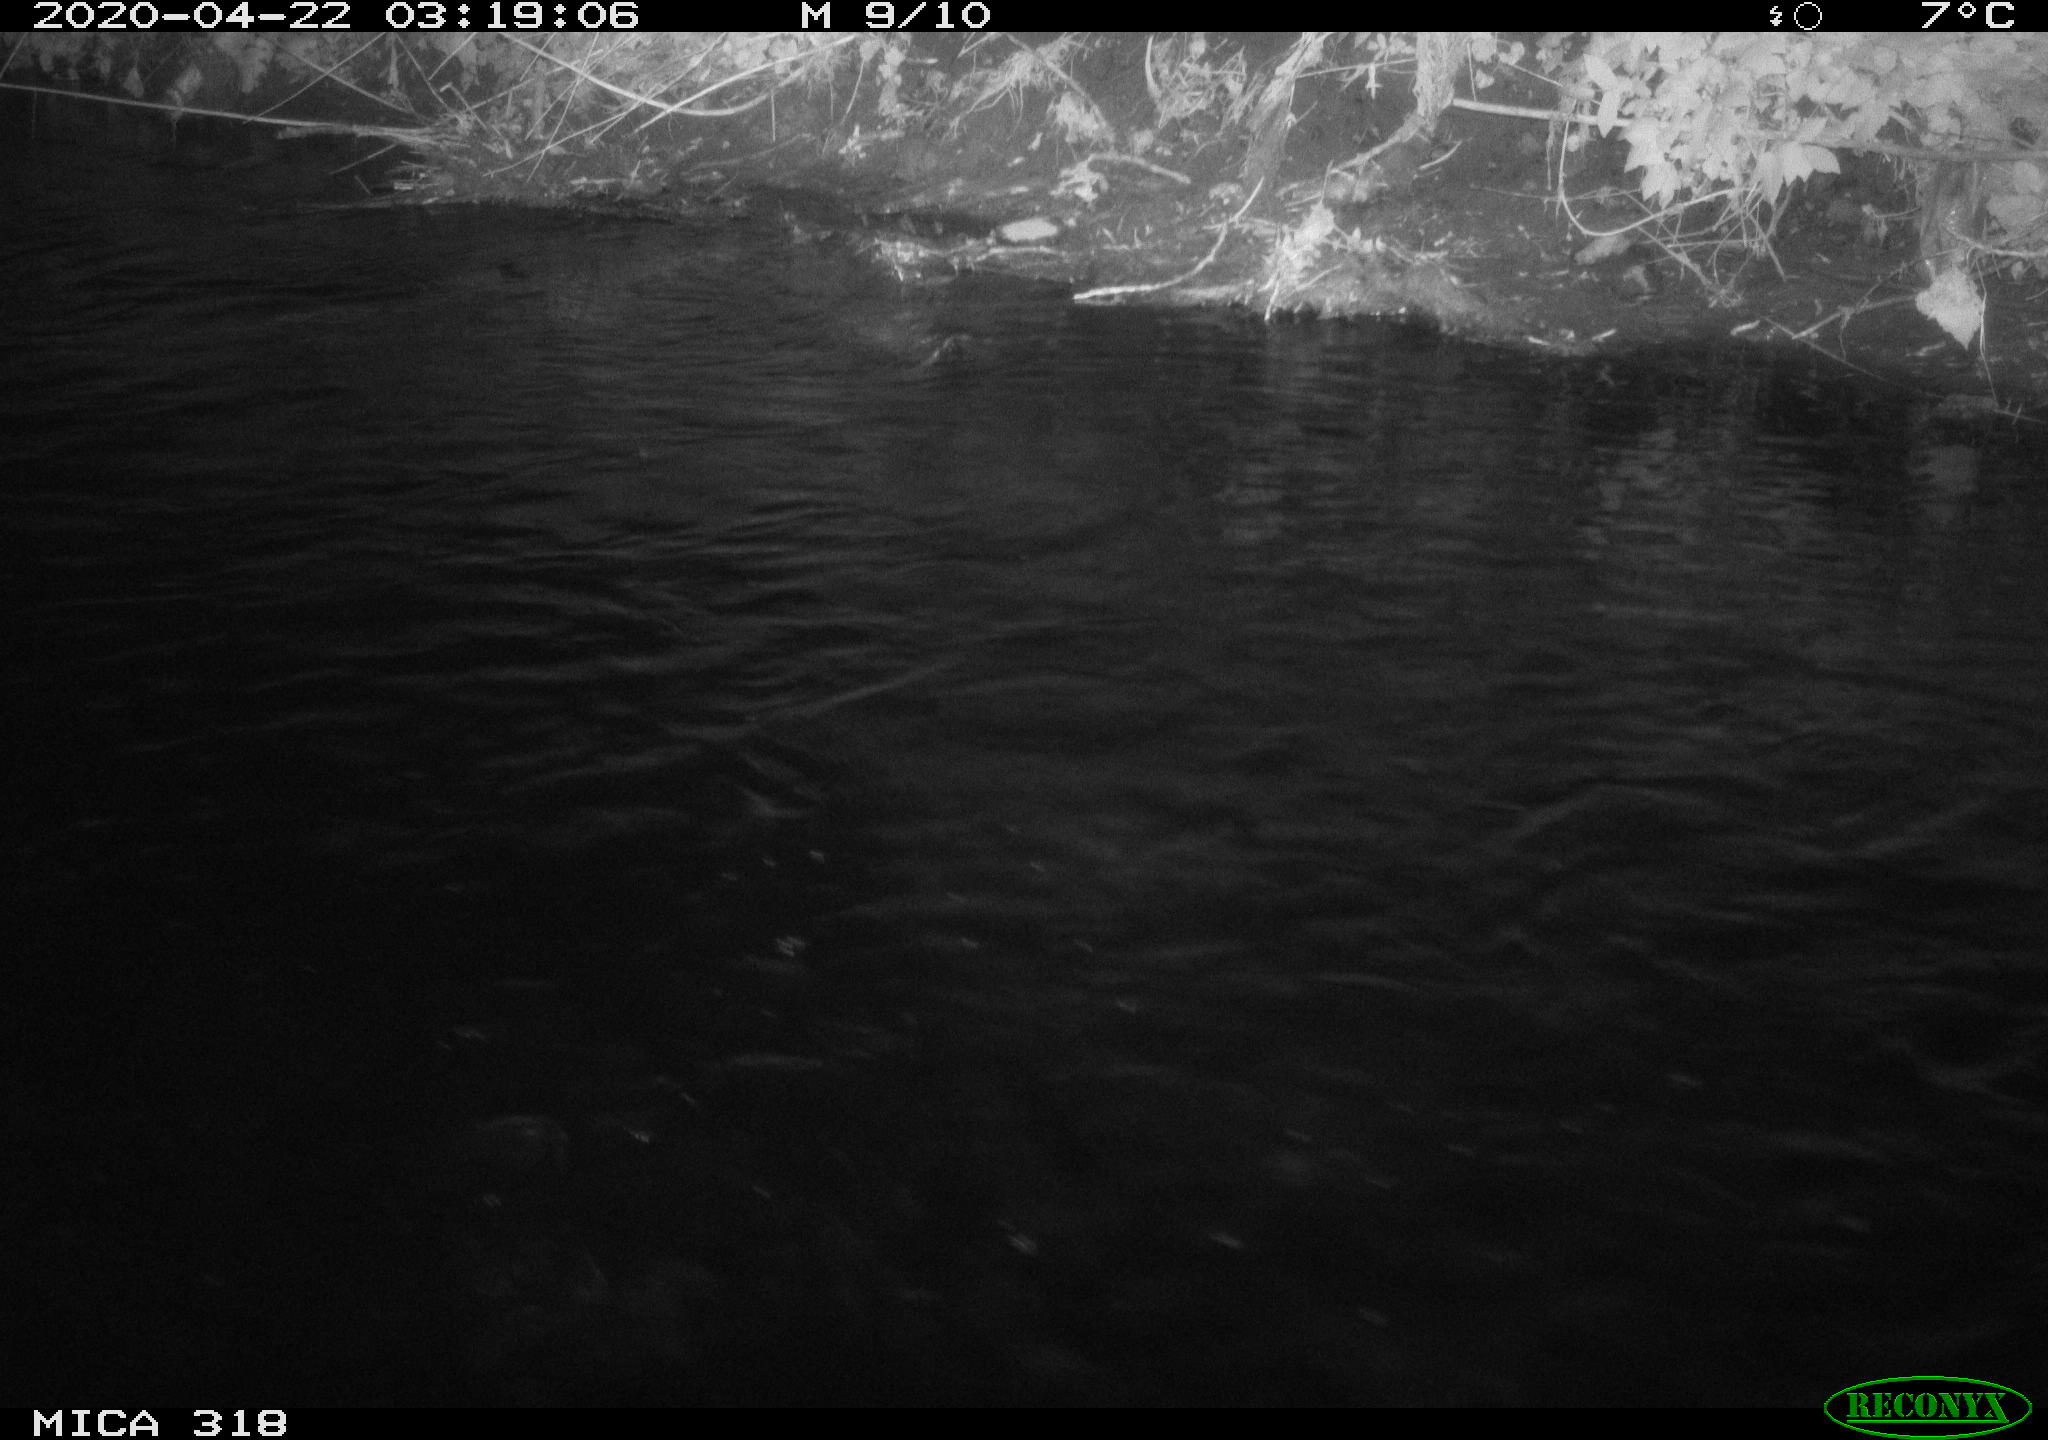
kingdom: Animalia
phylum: Chordata
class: Aves
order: Anseriformes
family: Anatidae
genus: Anas
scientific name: Anas platyrhynchos
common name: Mallard
